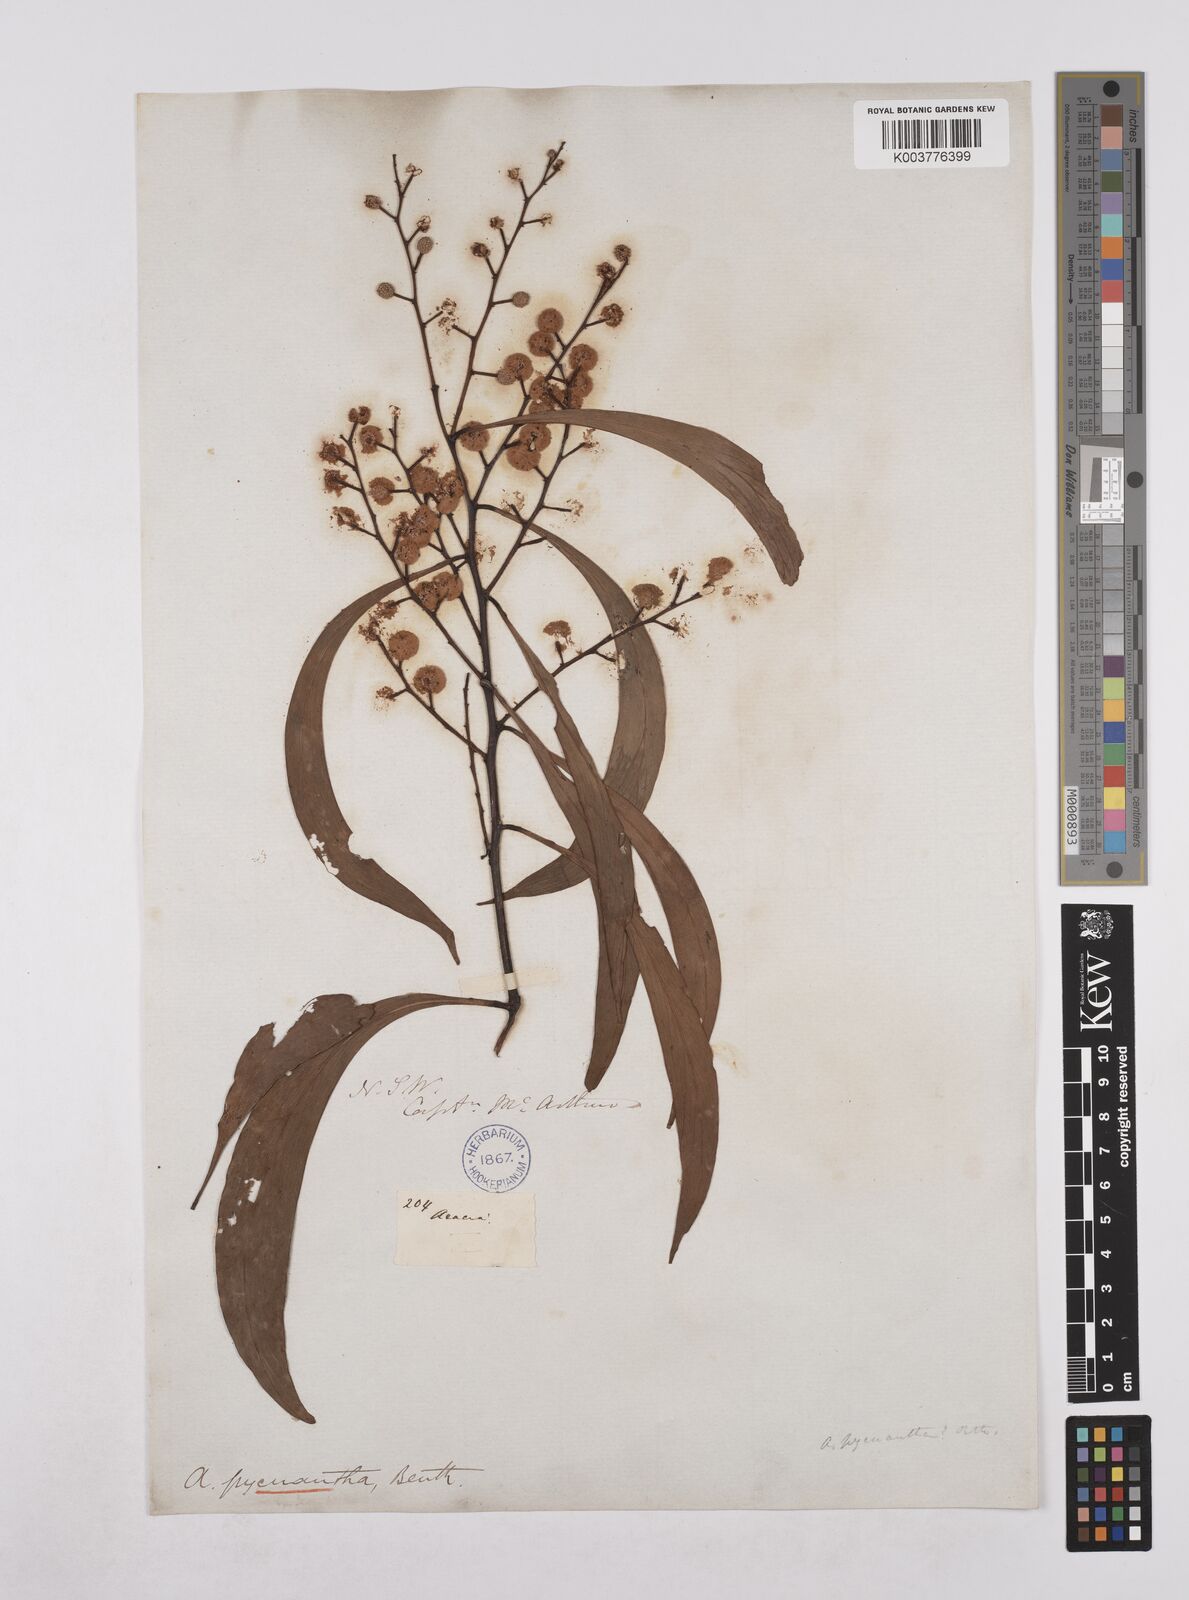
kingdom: Plantae
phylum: Tracheophyta
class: Magnoliopsida
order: Fabales
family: Fabaceae
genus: Acacia
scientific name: Acacia pycnantha
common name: Golden wattle
